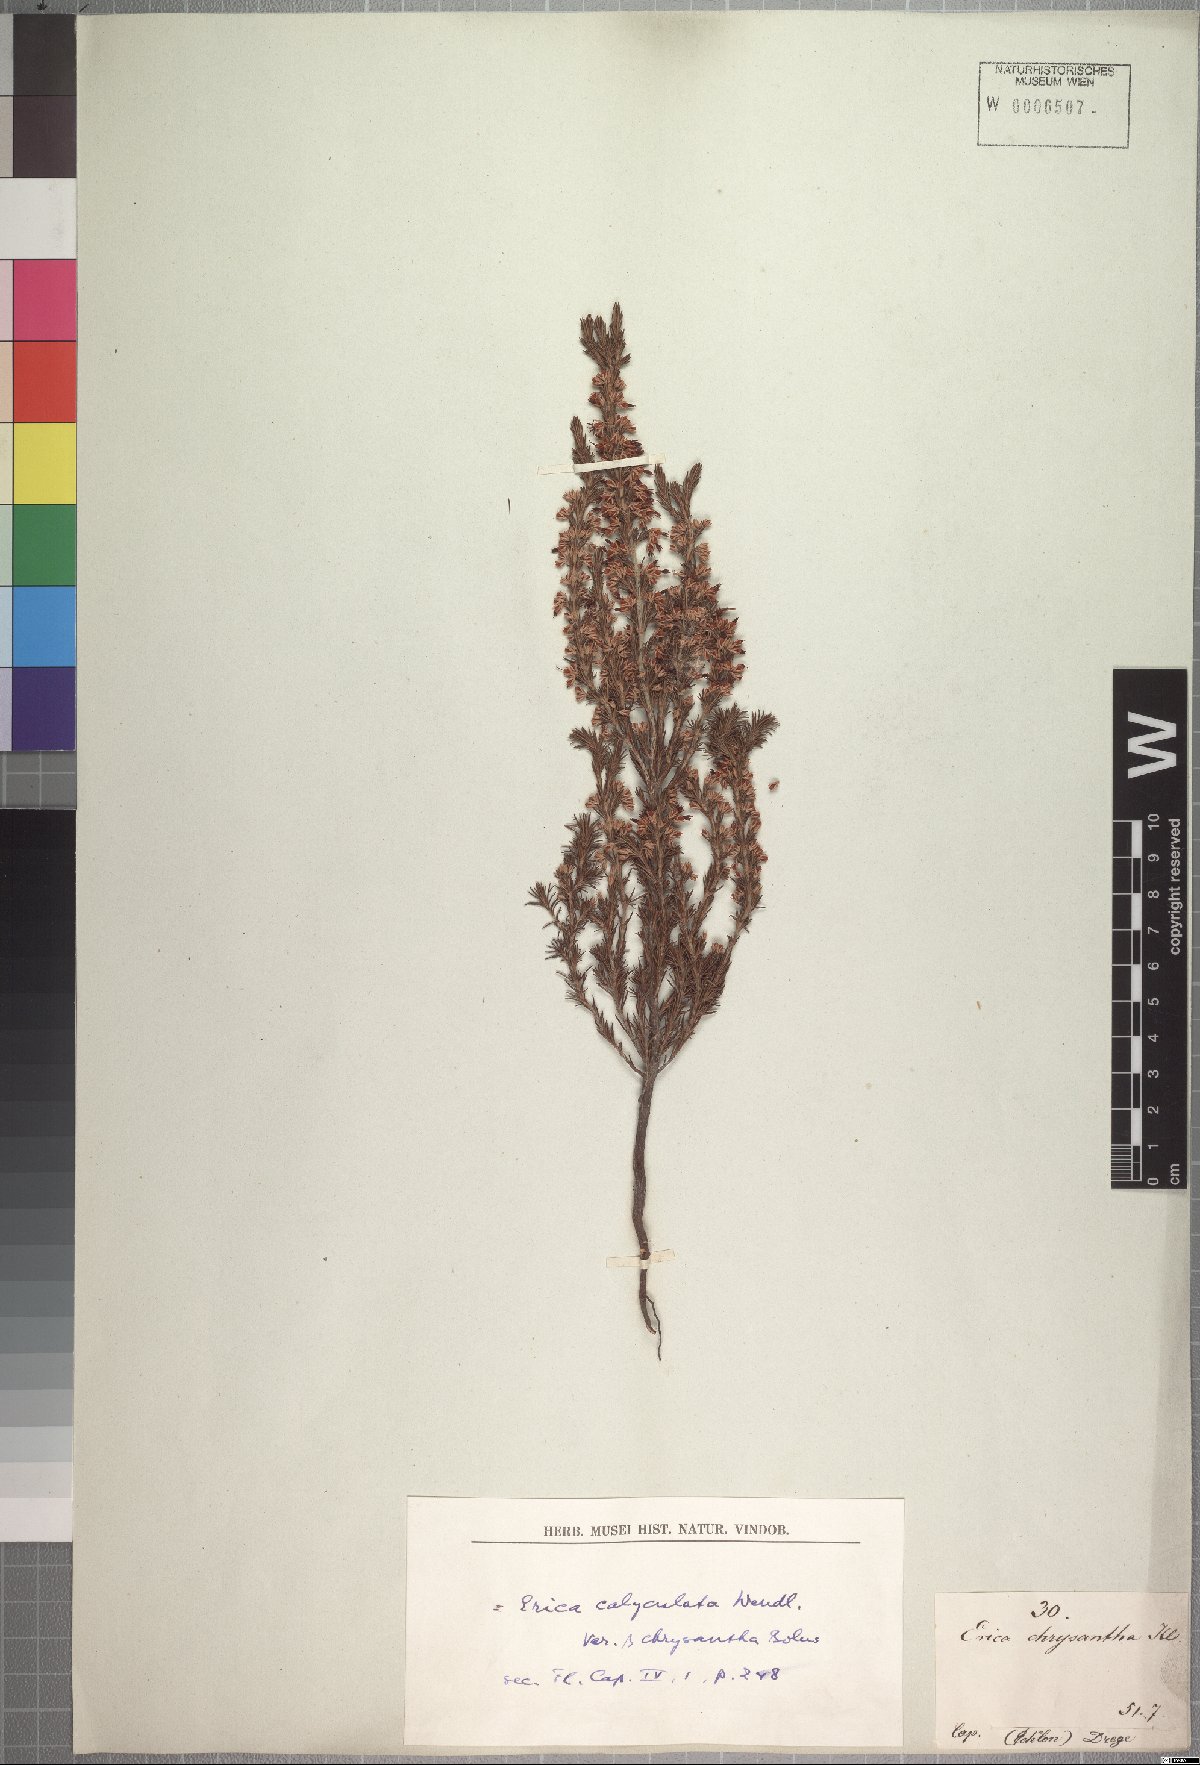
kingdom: Plantae
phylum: Tracheophyta
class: Magnoliopsida
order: Ericales
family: Ericaceae
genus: Erica
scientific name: Erica penicilliformis
